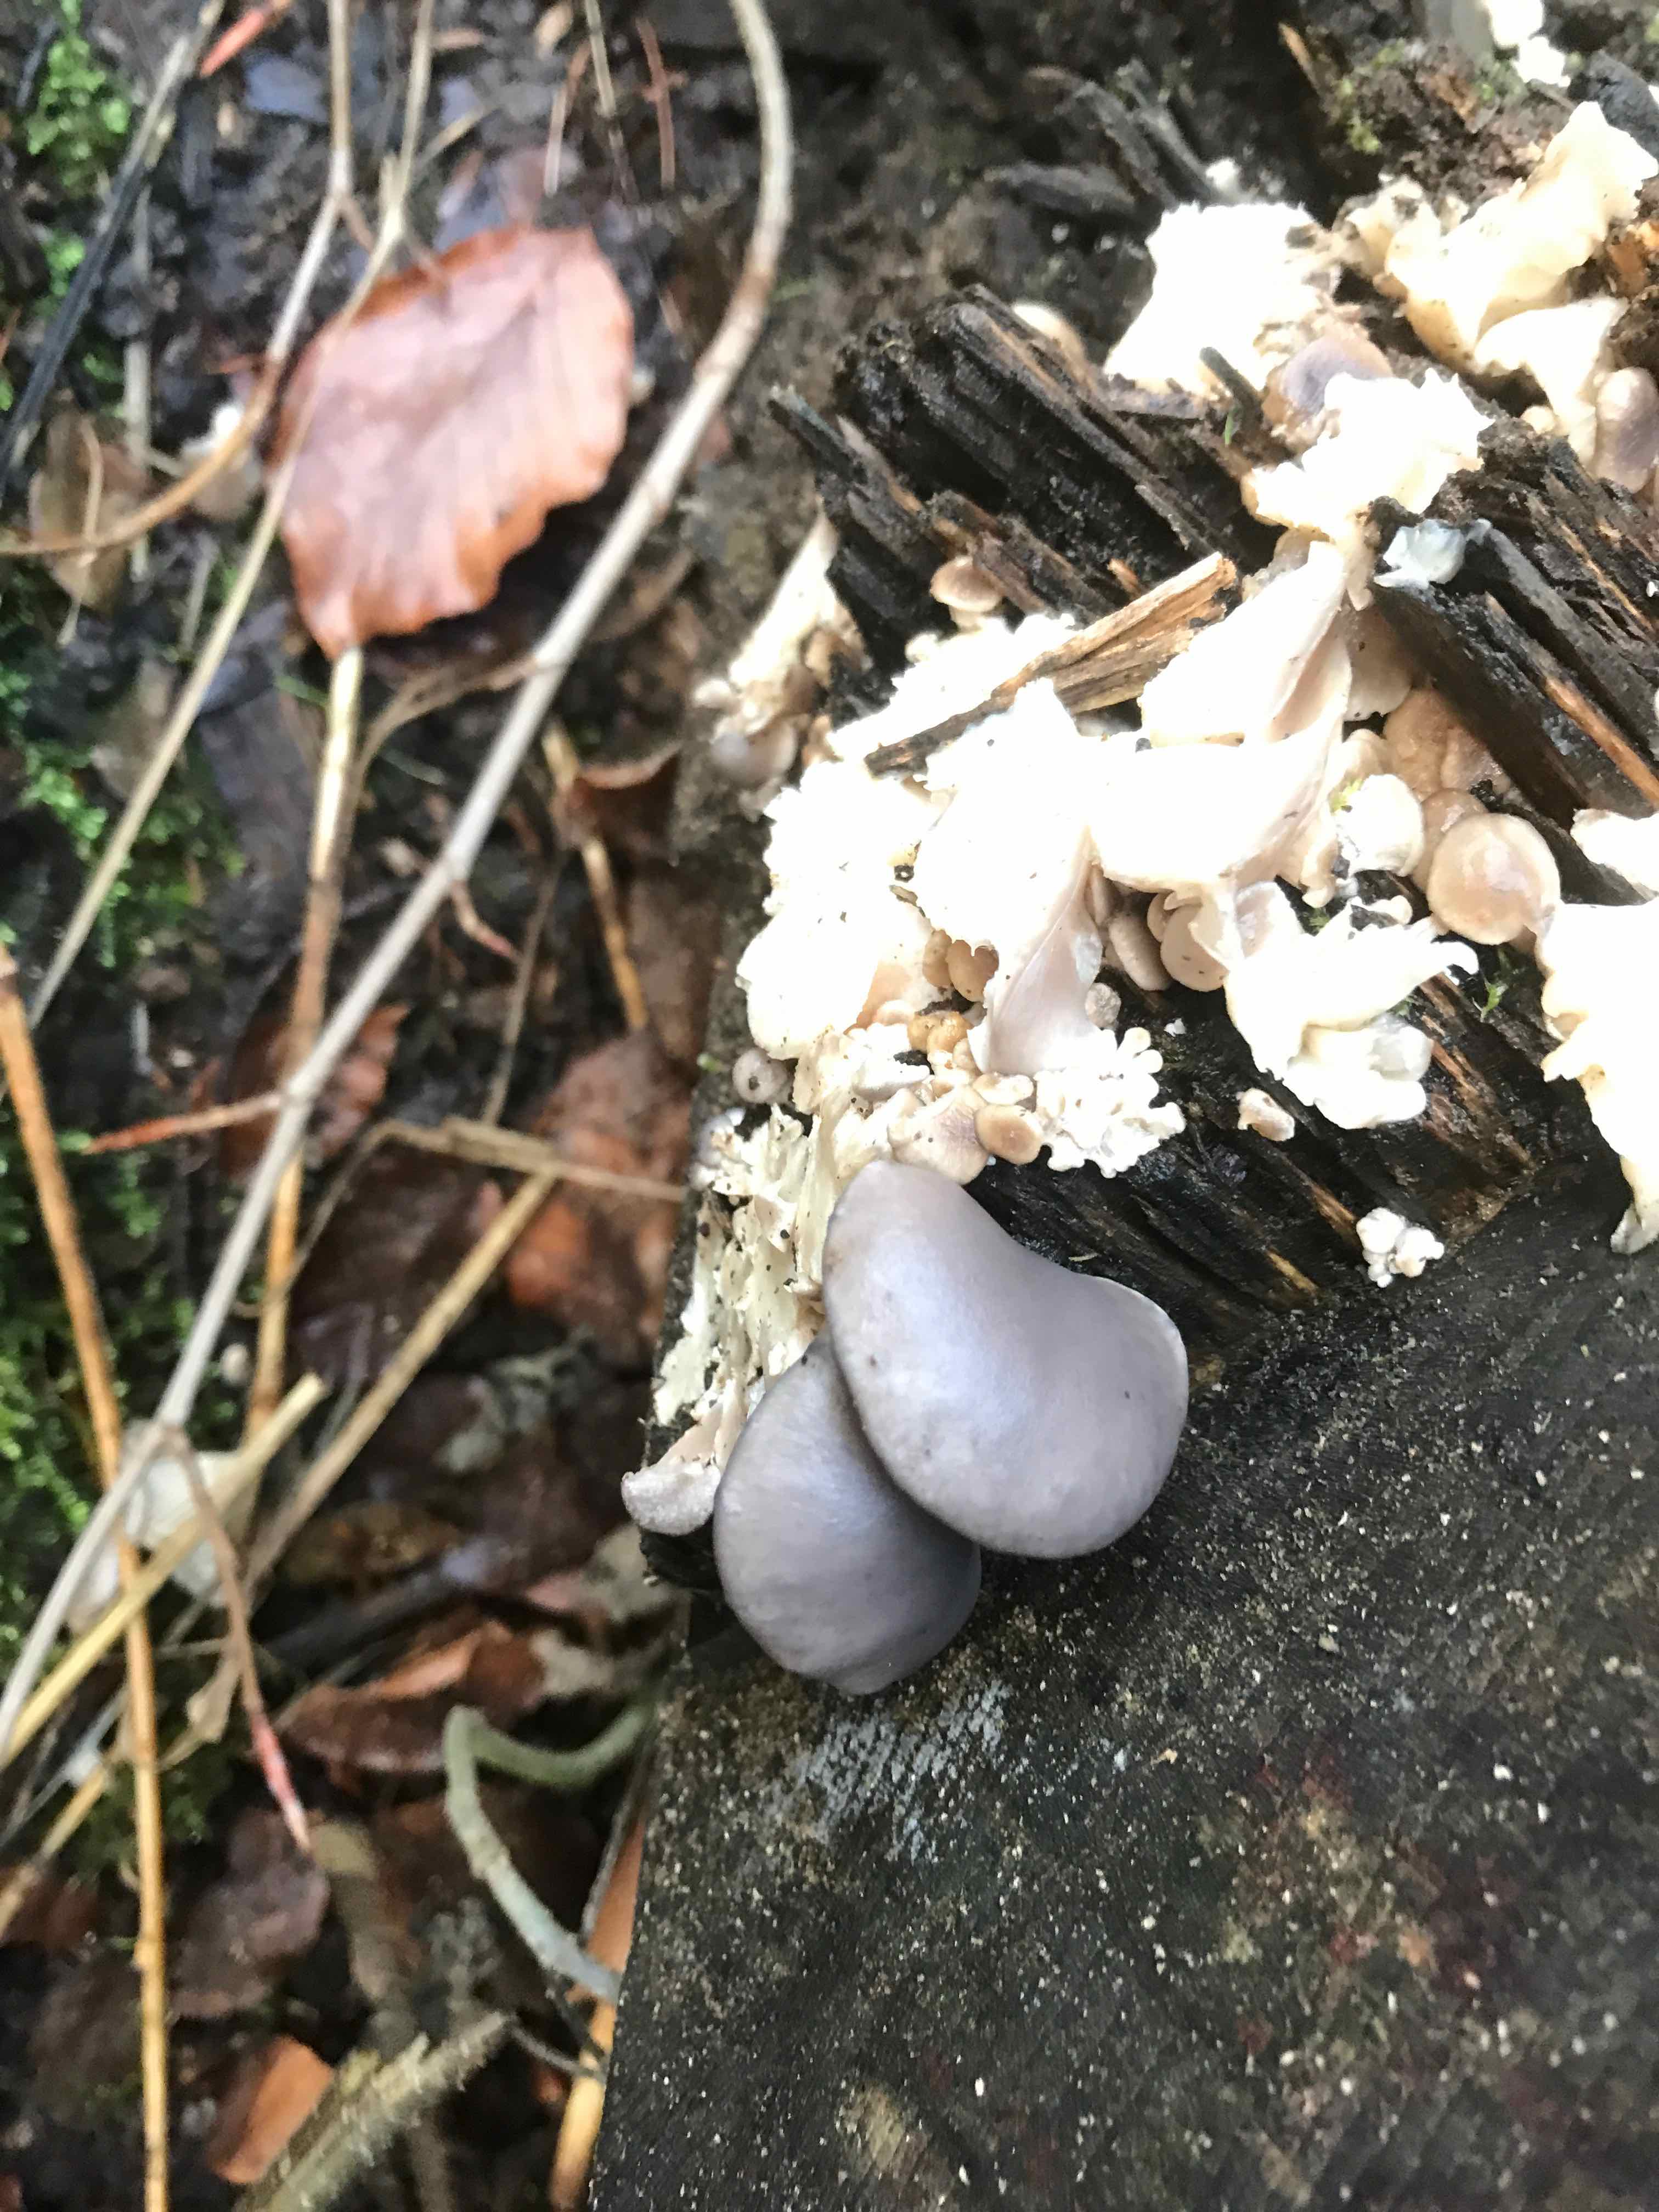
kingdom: Fungi
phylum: Basidiomycota
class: Agaricomycetes
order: Agaricales
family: Pleurotaceae
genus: Pleurotus
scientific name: Pleurotus ostreatus
